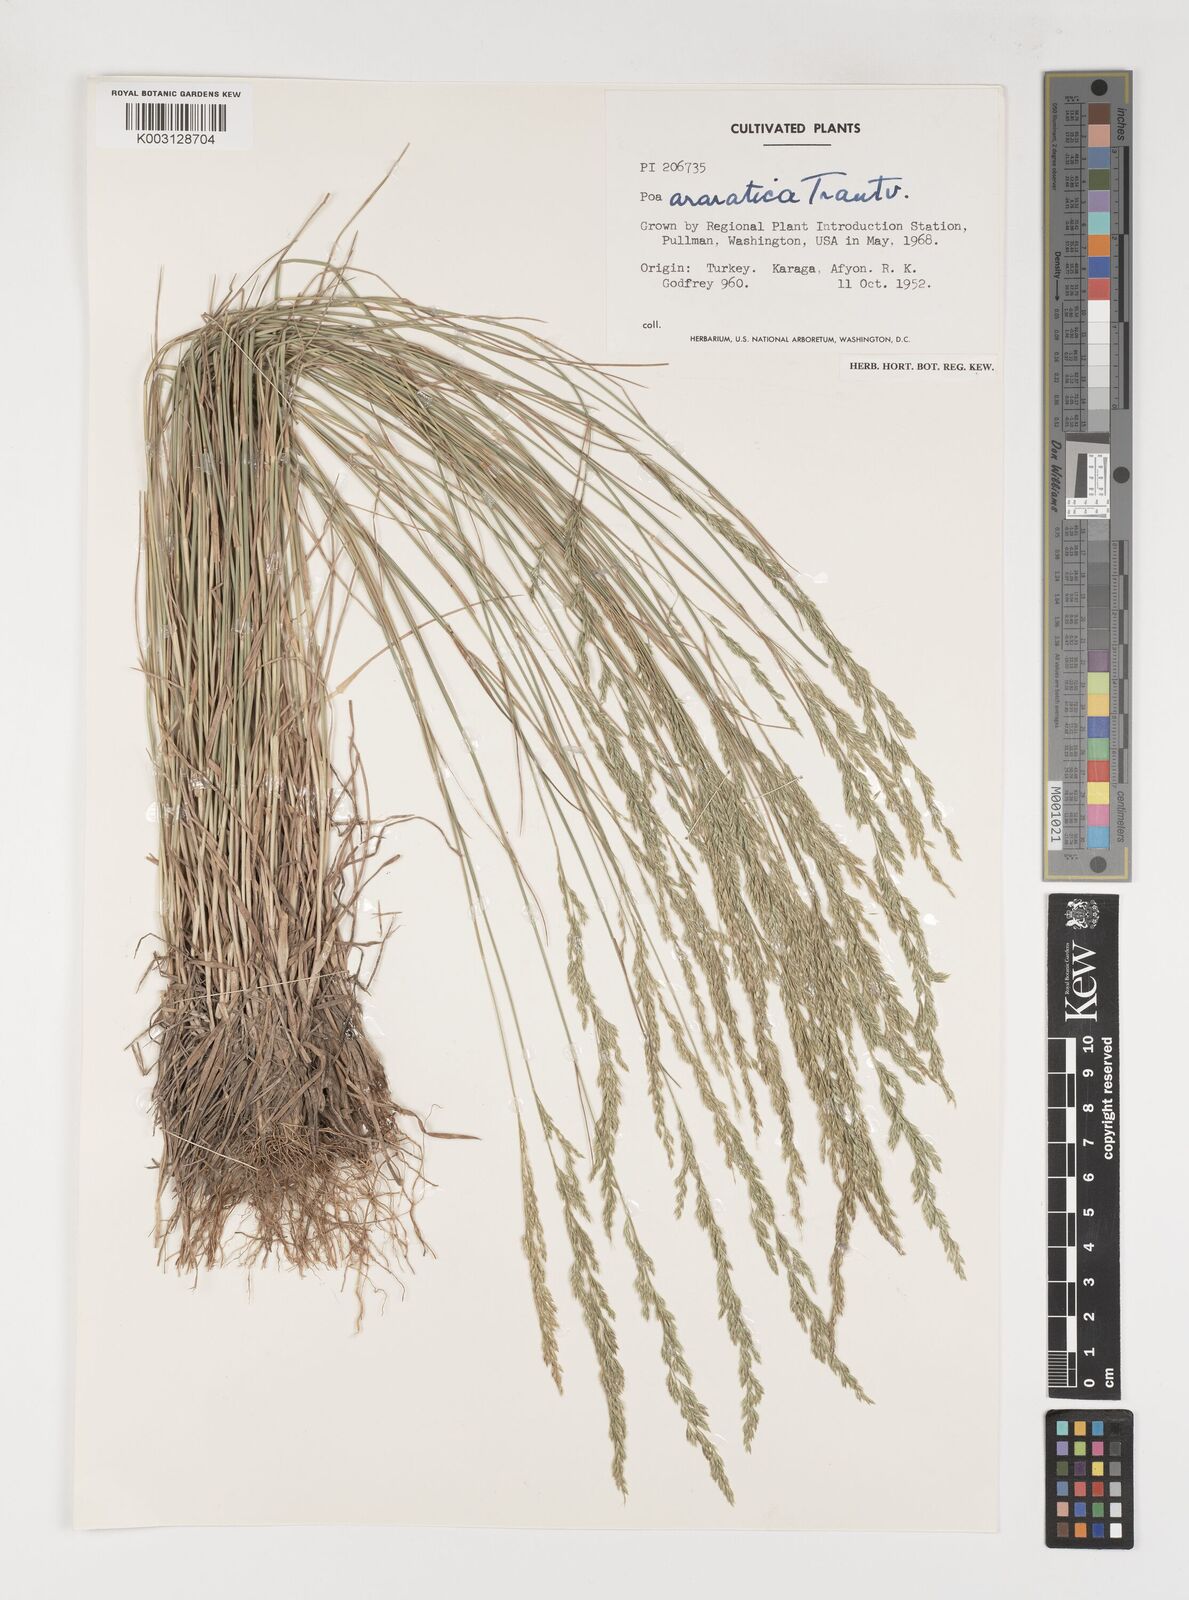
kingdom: Plantae
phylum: Tracheophyta
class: Liliopsida
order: Poales
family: Poaceae
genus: Poa
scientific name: Poa araratica
